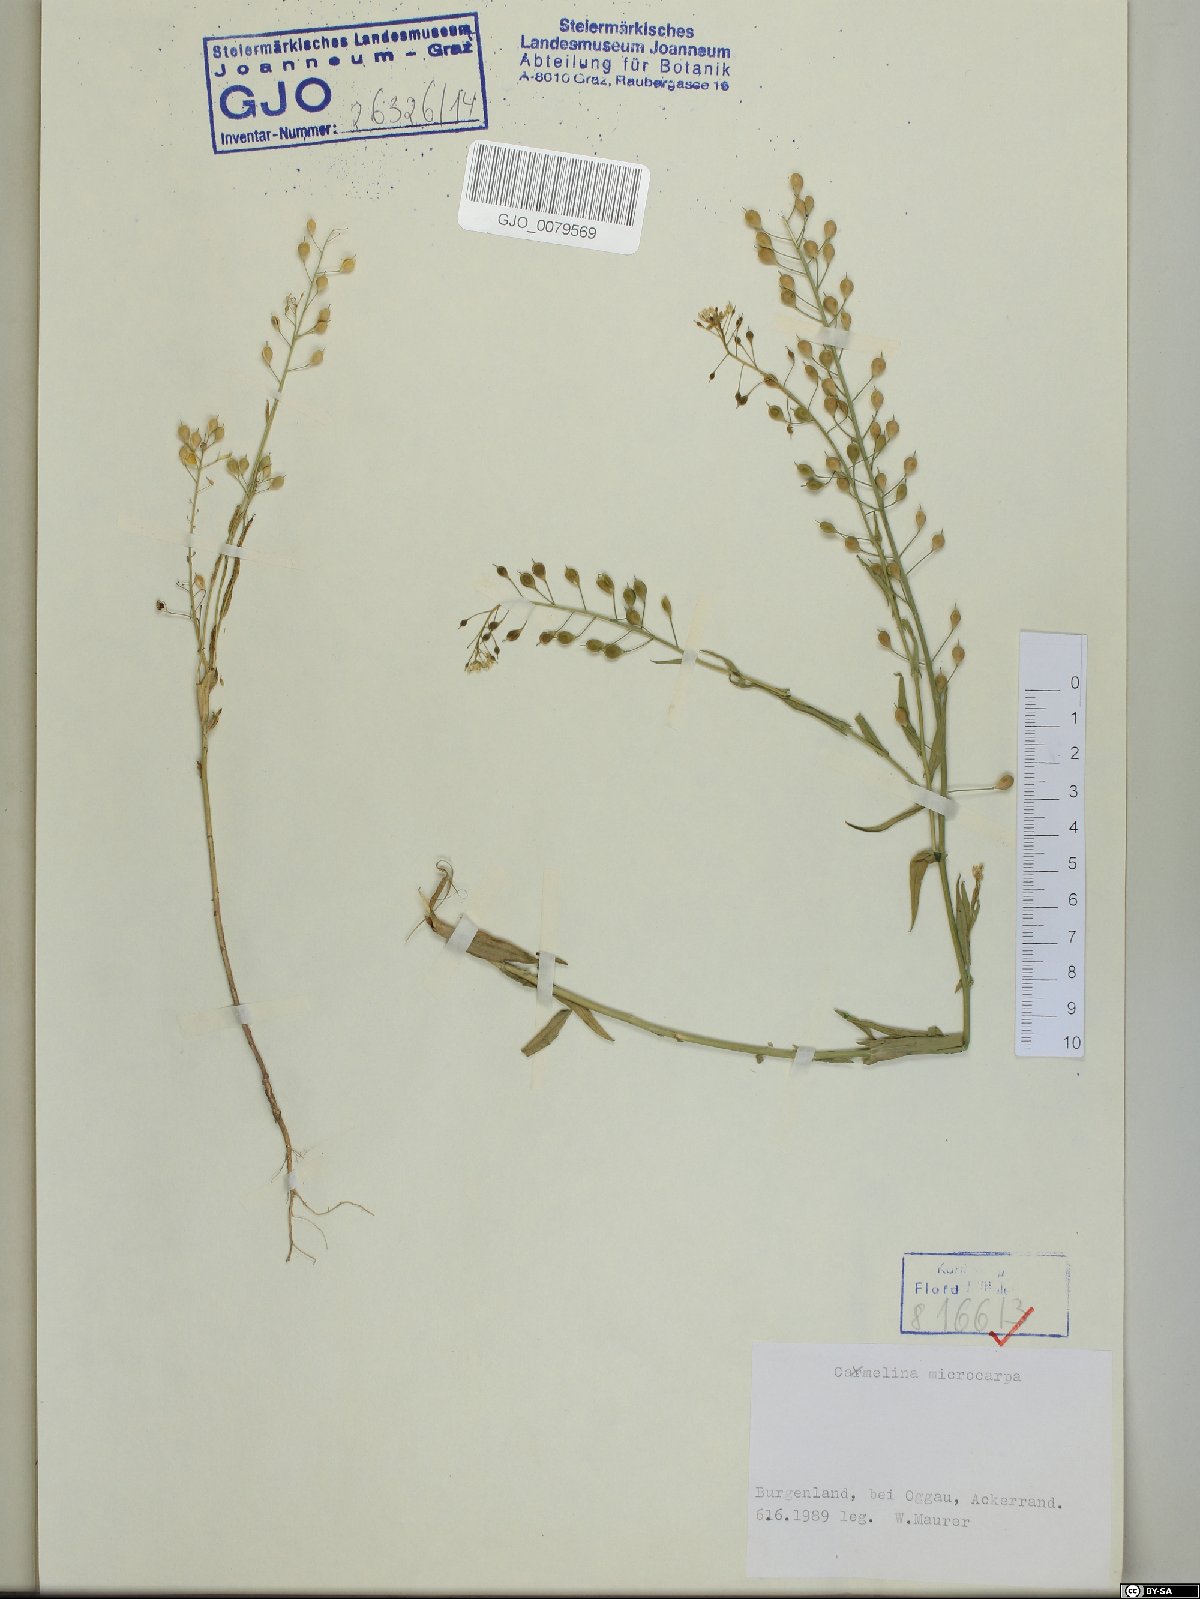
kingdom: Plantae
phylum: Tracheophyta
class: Magnoliopsida
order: Brassicales
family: Brassicaceae
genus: Camelina
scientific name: Camelina microcarpa
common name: Lesser gold-of-pleasure
